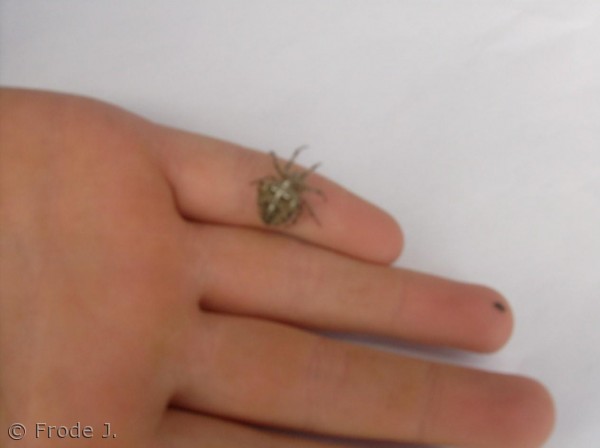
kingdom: Animalia
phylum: Arthropoda
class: Arachnida
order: Araneae
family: Araneidae
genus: Araneus
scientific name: Araneus diadematus
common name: Korsedderkop
